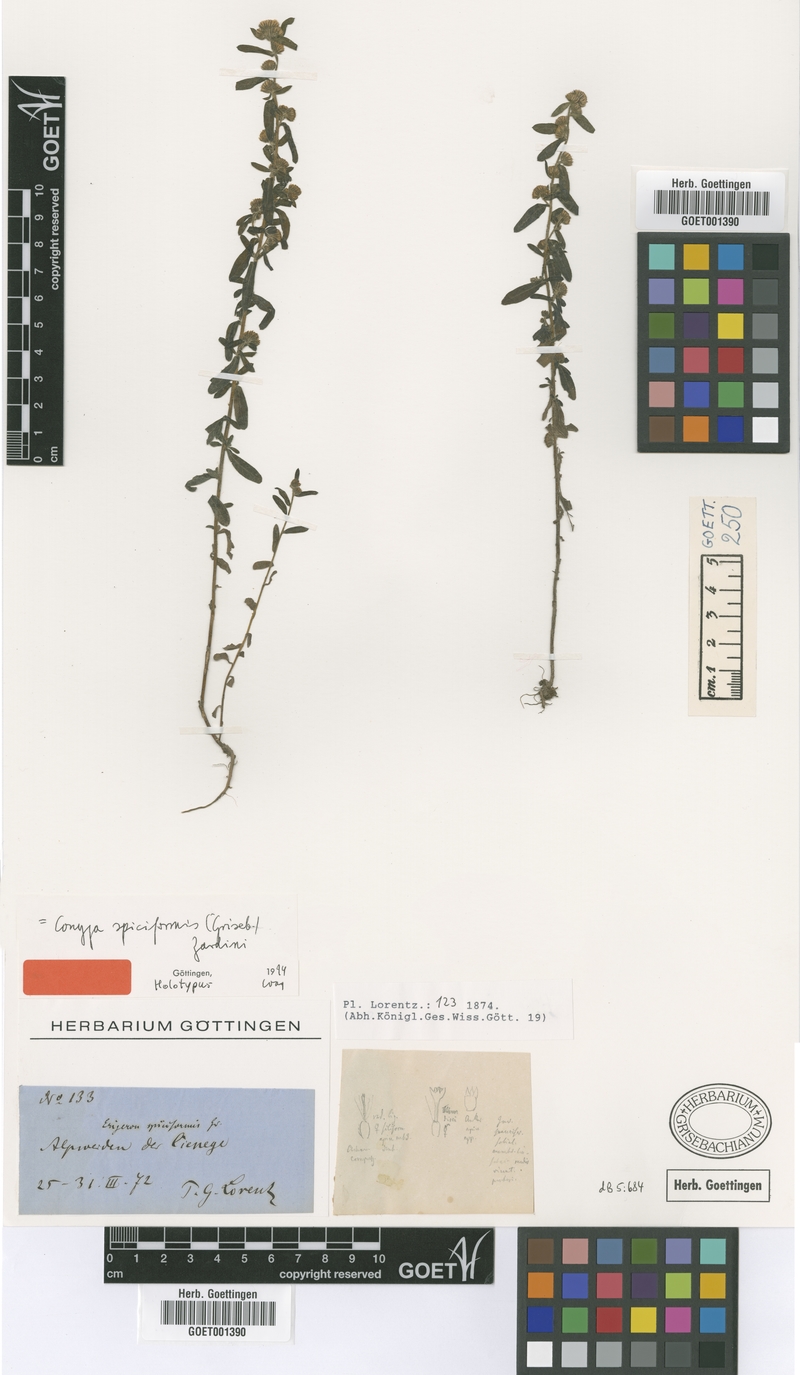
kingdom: Plantae
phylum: Tracheophyta
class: Magnoliopsida
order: Asterales
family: Asteraceae
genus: Erigeron
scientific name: Erigeron spiciformis
